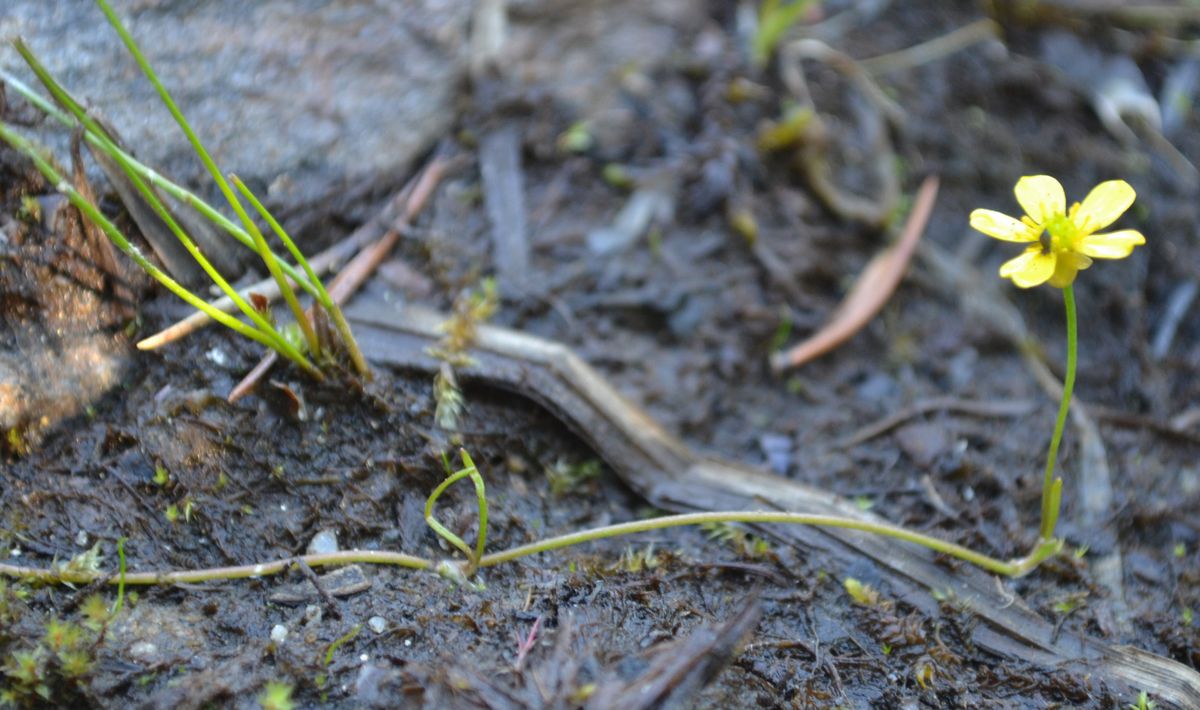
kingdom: Plantae
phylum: Tracheophyta
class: Magnoliopsida
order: Ranunculales
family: Ranunculaceae
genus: Ranunculus
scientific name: Ranunculus reptans
